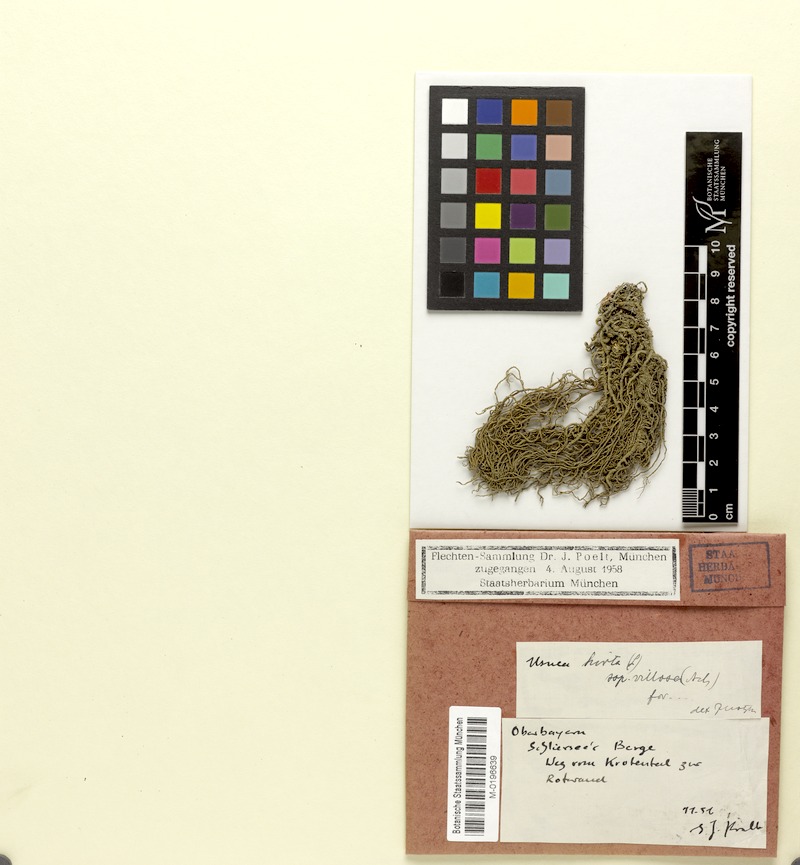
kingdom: Fungi
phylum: Ascomycota
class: Lecanoromycetes
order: Lecanorales
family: Parmeliaceae
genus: Usnea
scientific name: Usnea hirta
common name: Bristly beard lichen
